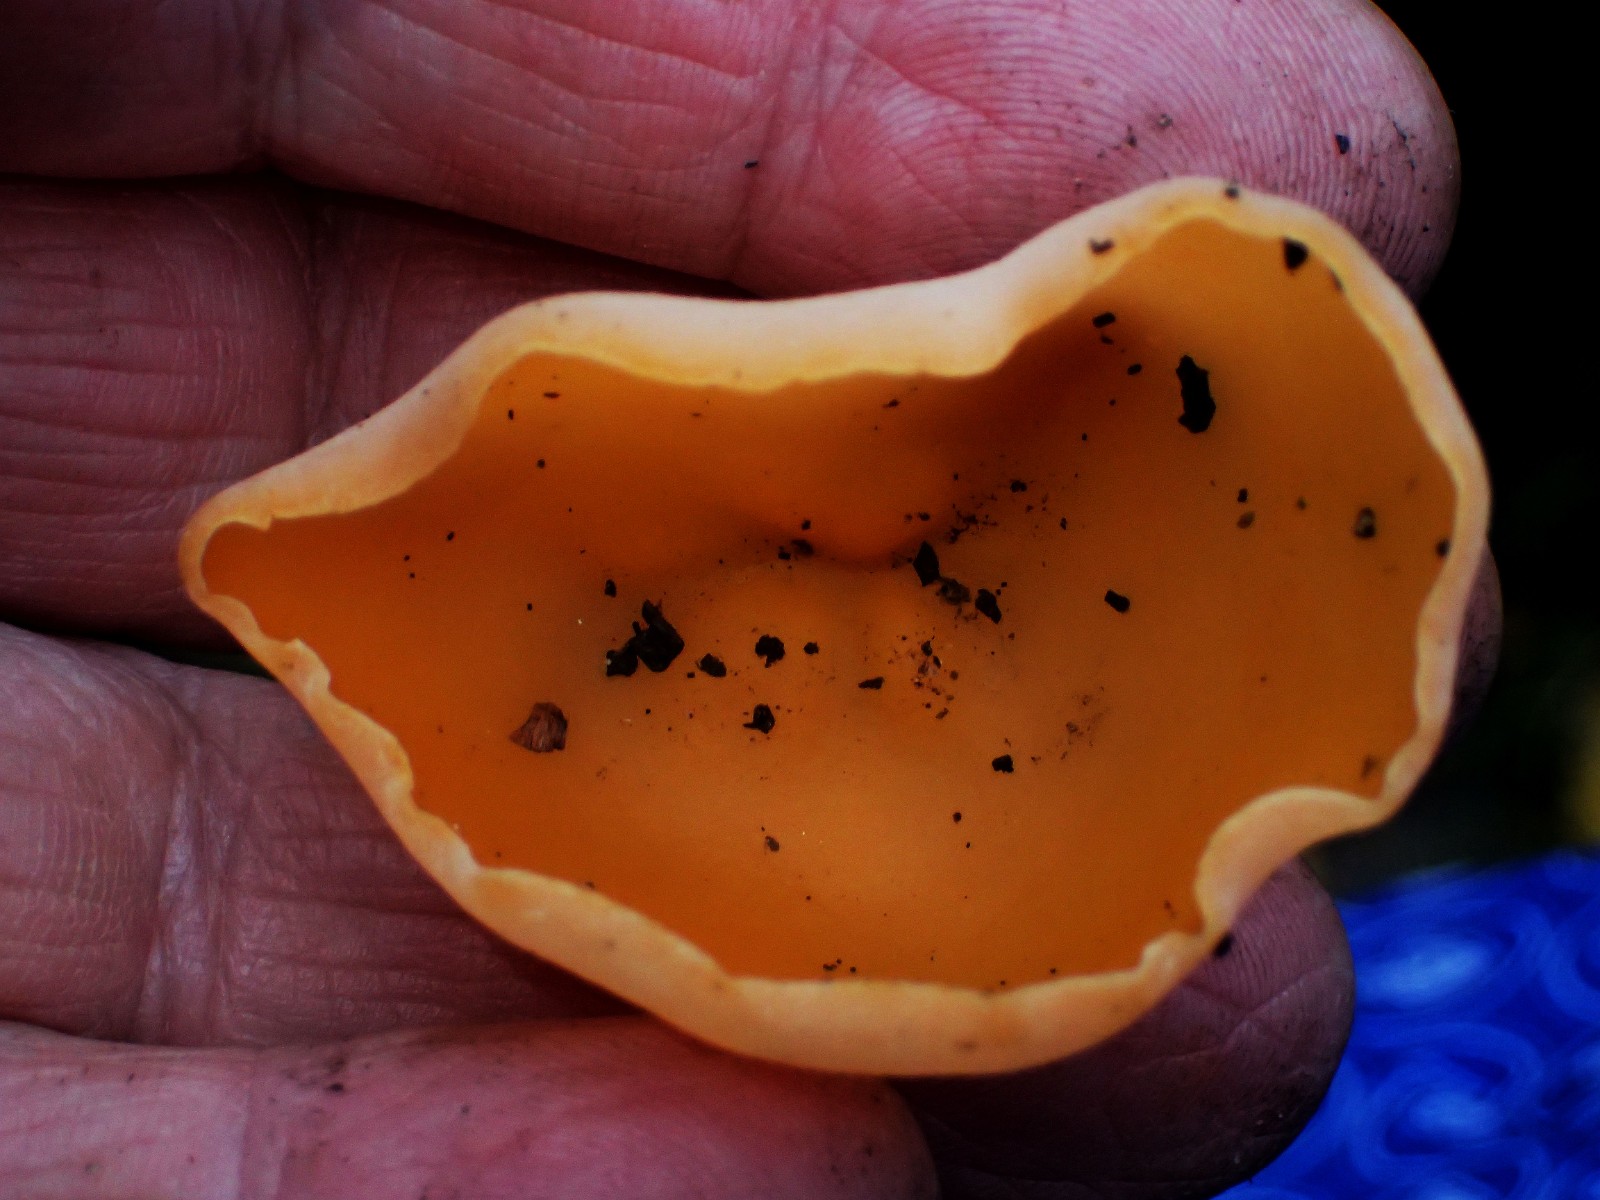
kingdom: Fungi
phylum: Ascomycota
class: Pezizomycetes
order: Pezizales
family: Pyronemataceae
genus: Aleuria
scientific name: Aleuria aurantia
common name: almindelig orangebæger
